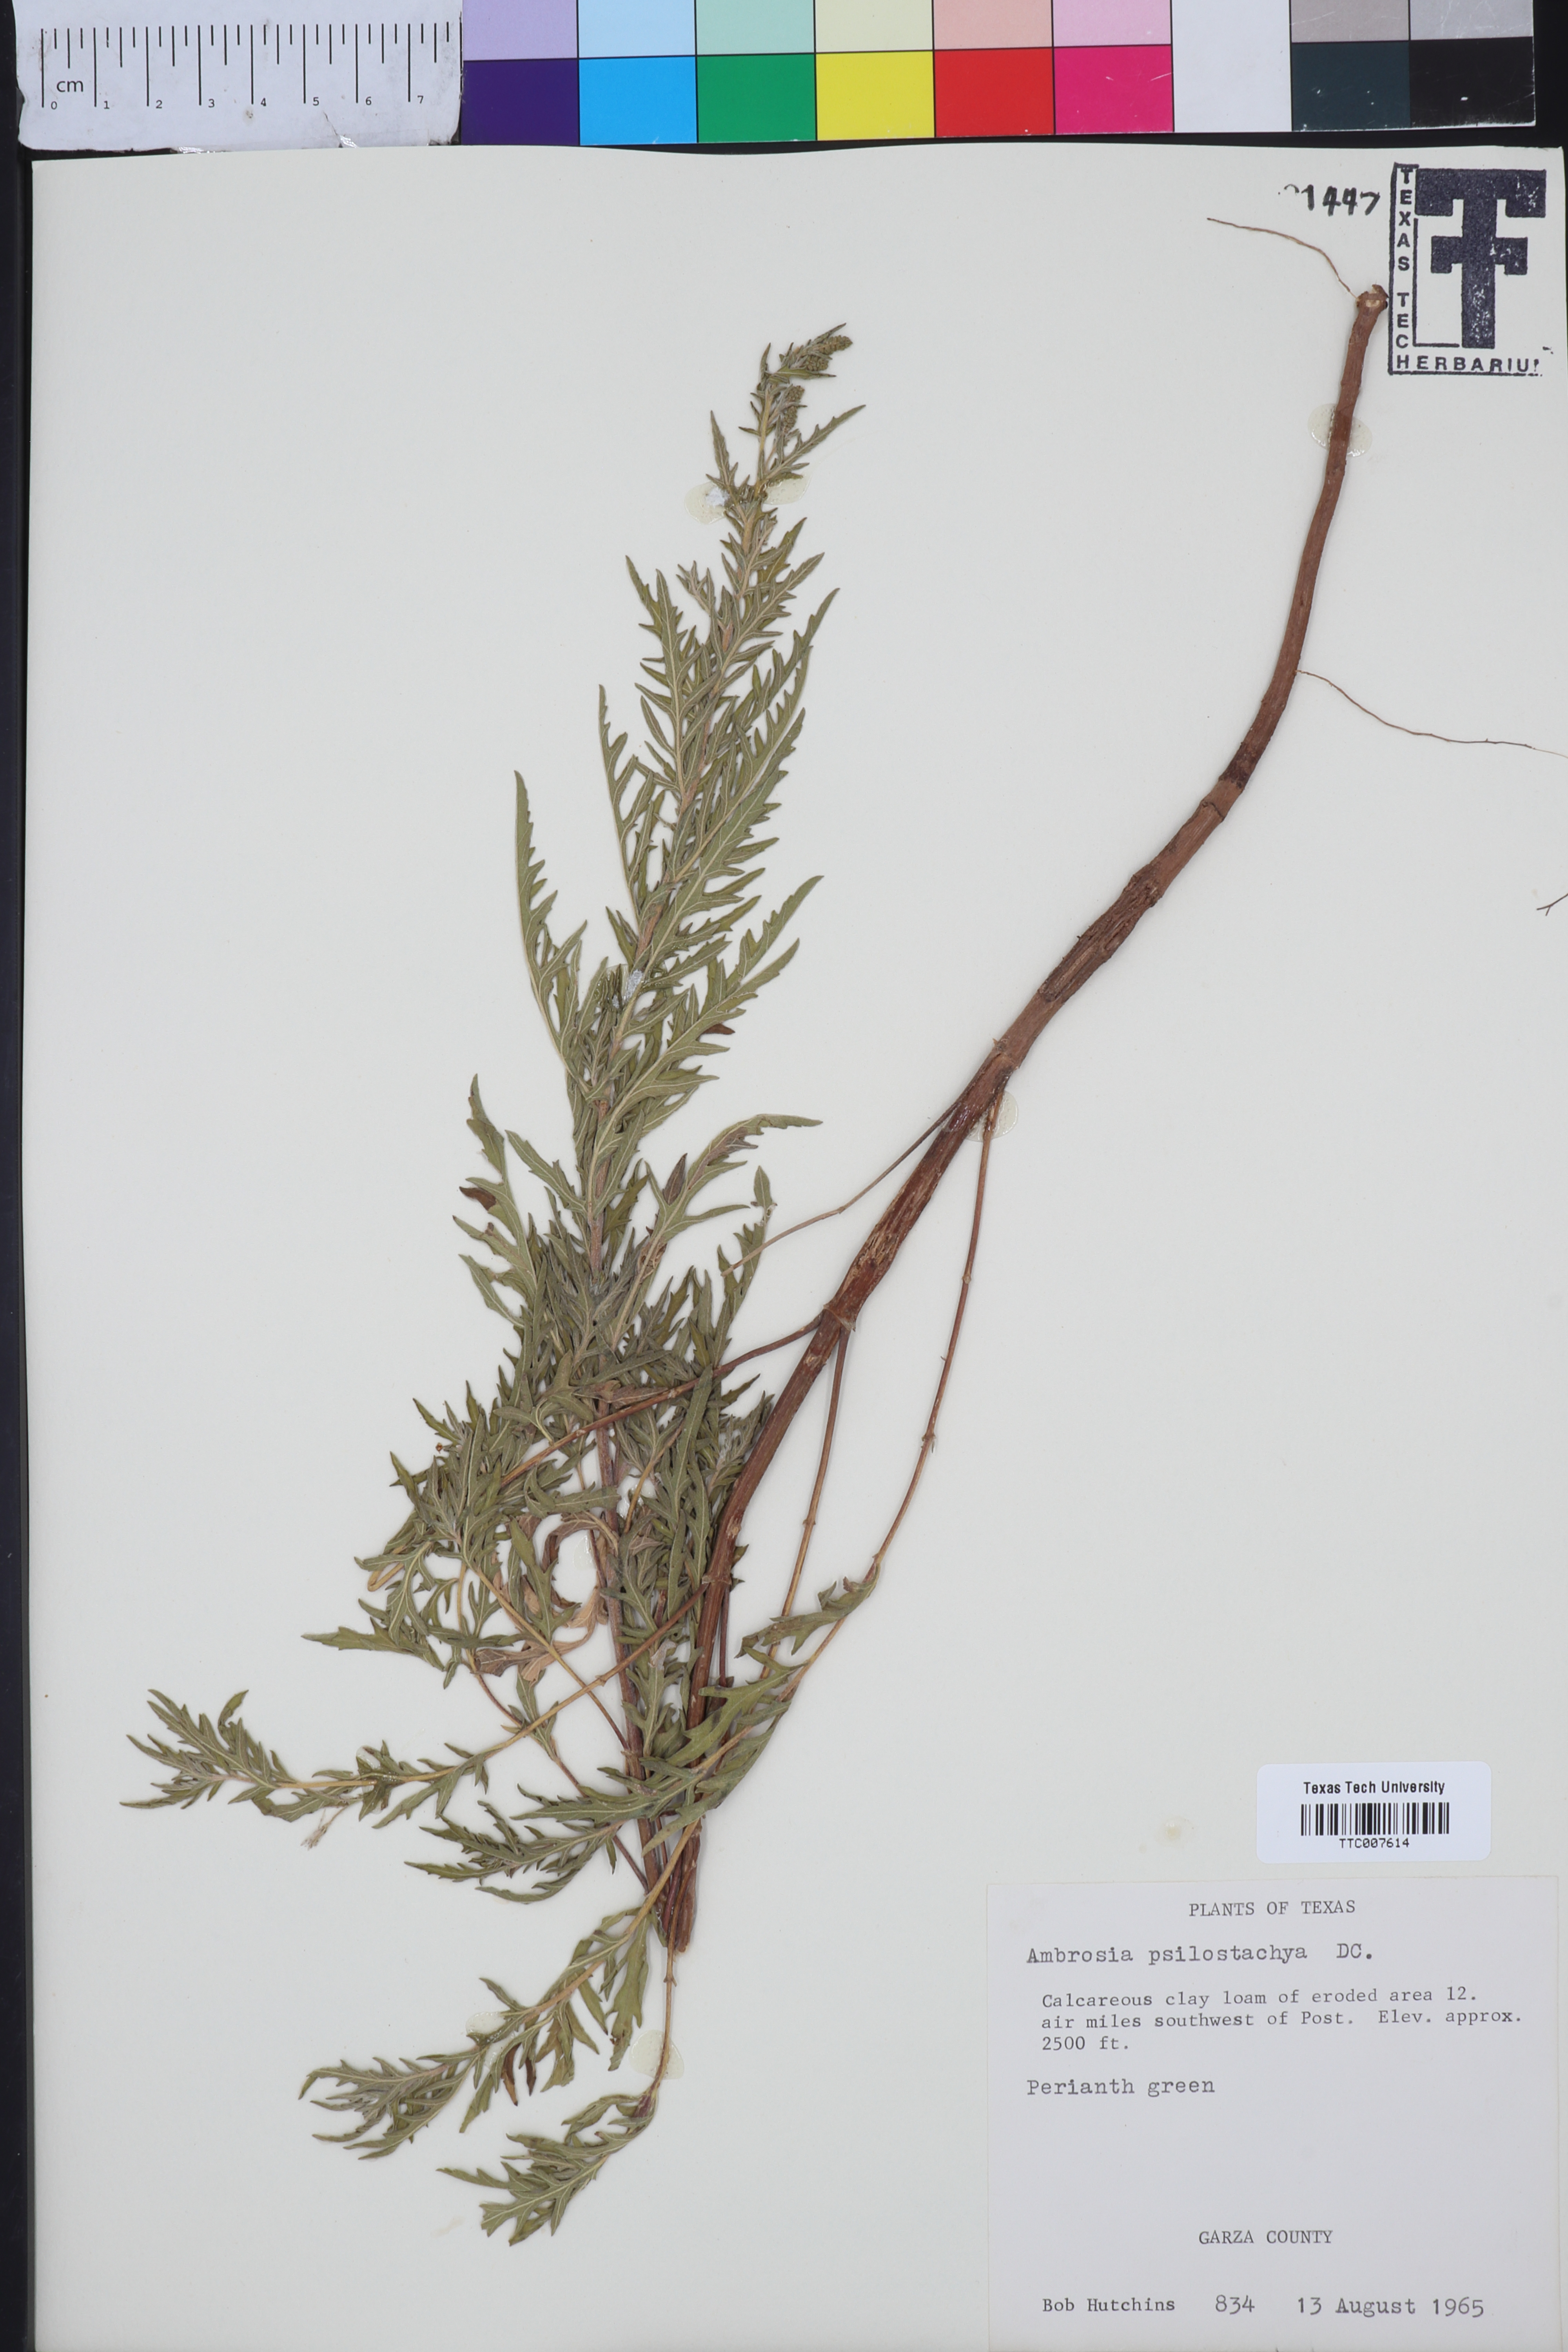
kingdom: Plantae
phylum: Tracheophyta
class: Magnoliopsida
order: Asterales
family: Asteraceae
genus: Ambrosia
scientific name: Ambrosia psilostachya
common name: Perennial ragweed
